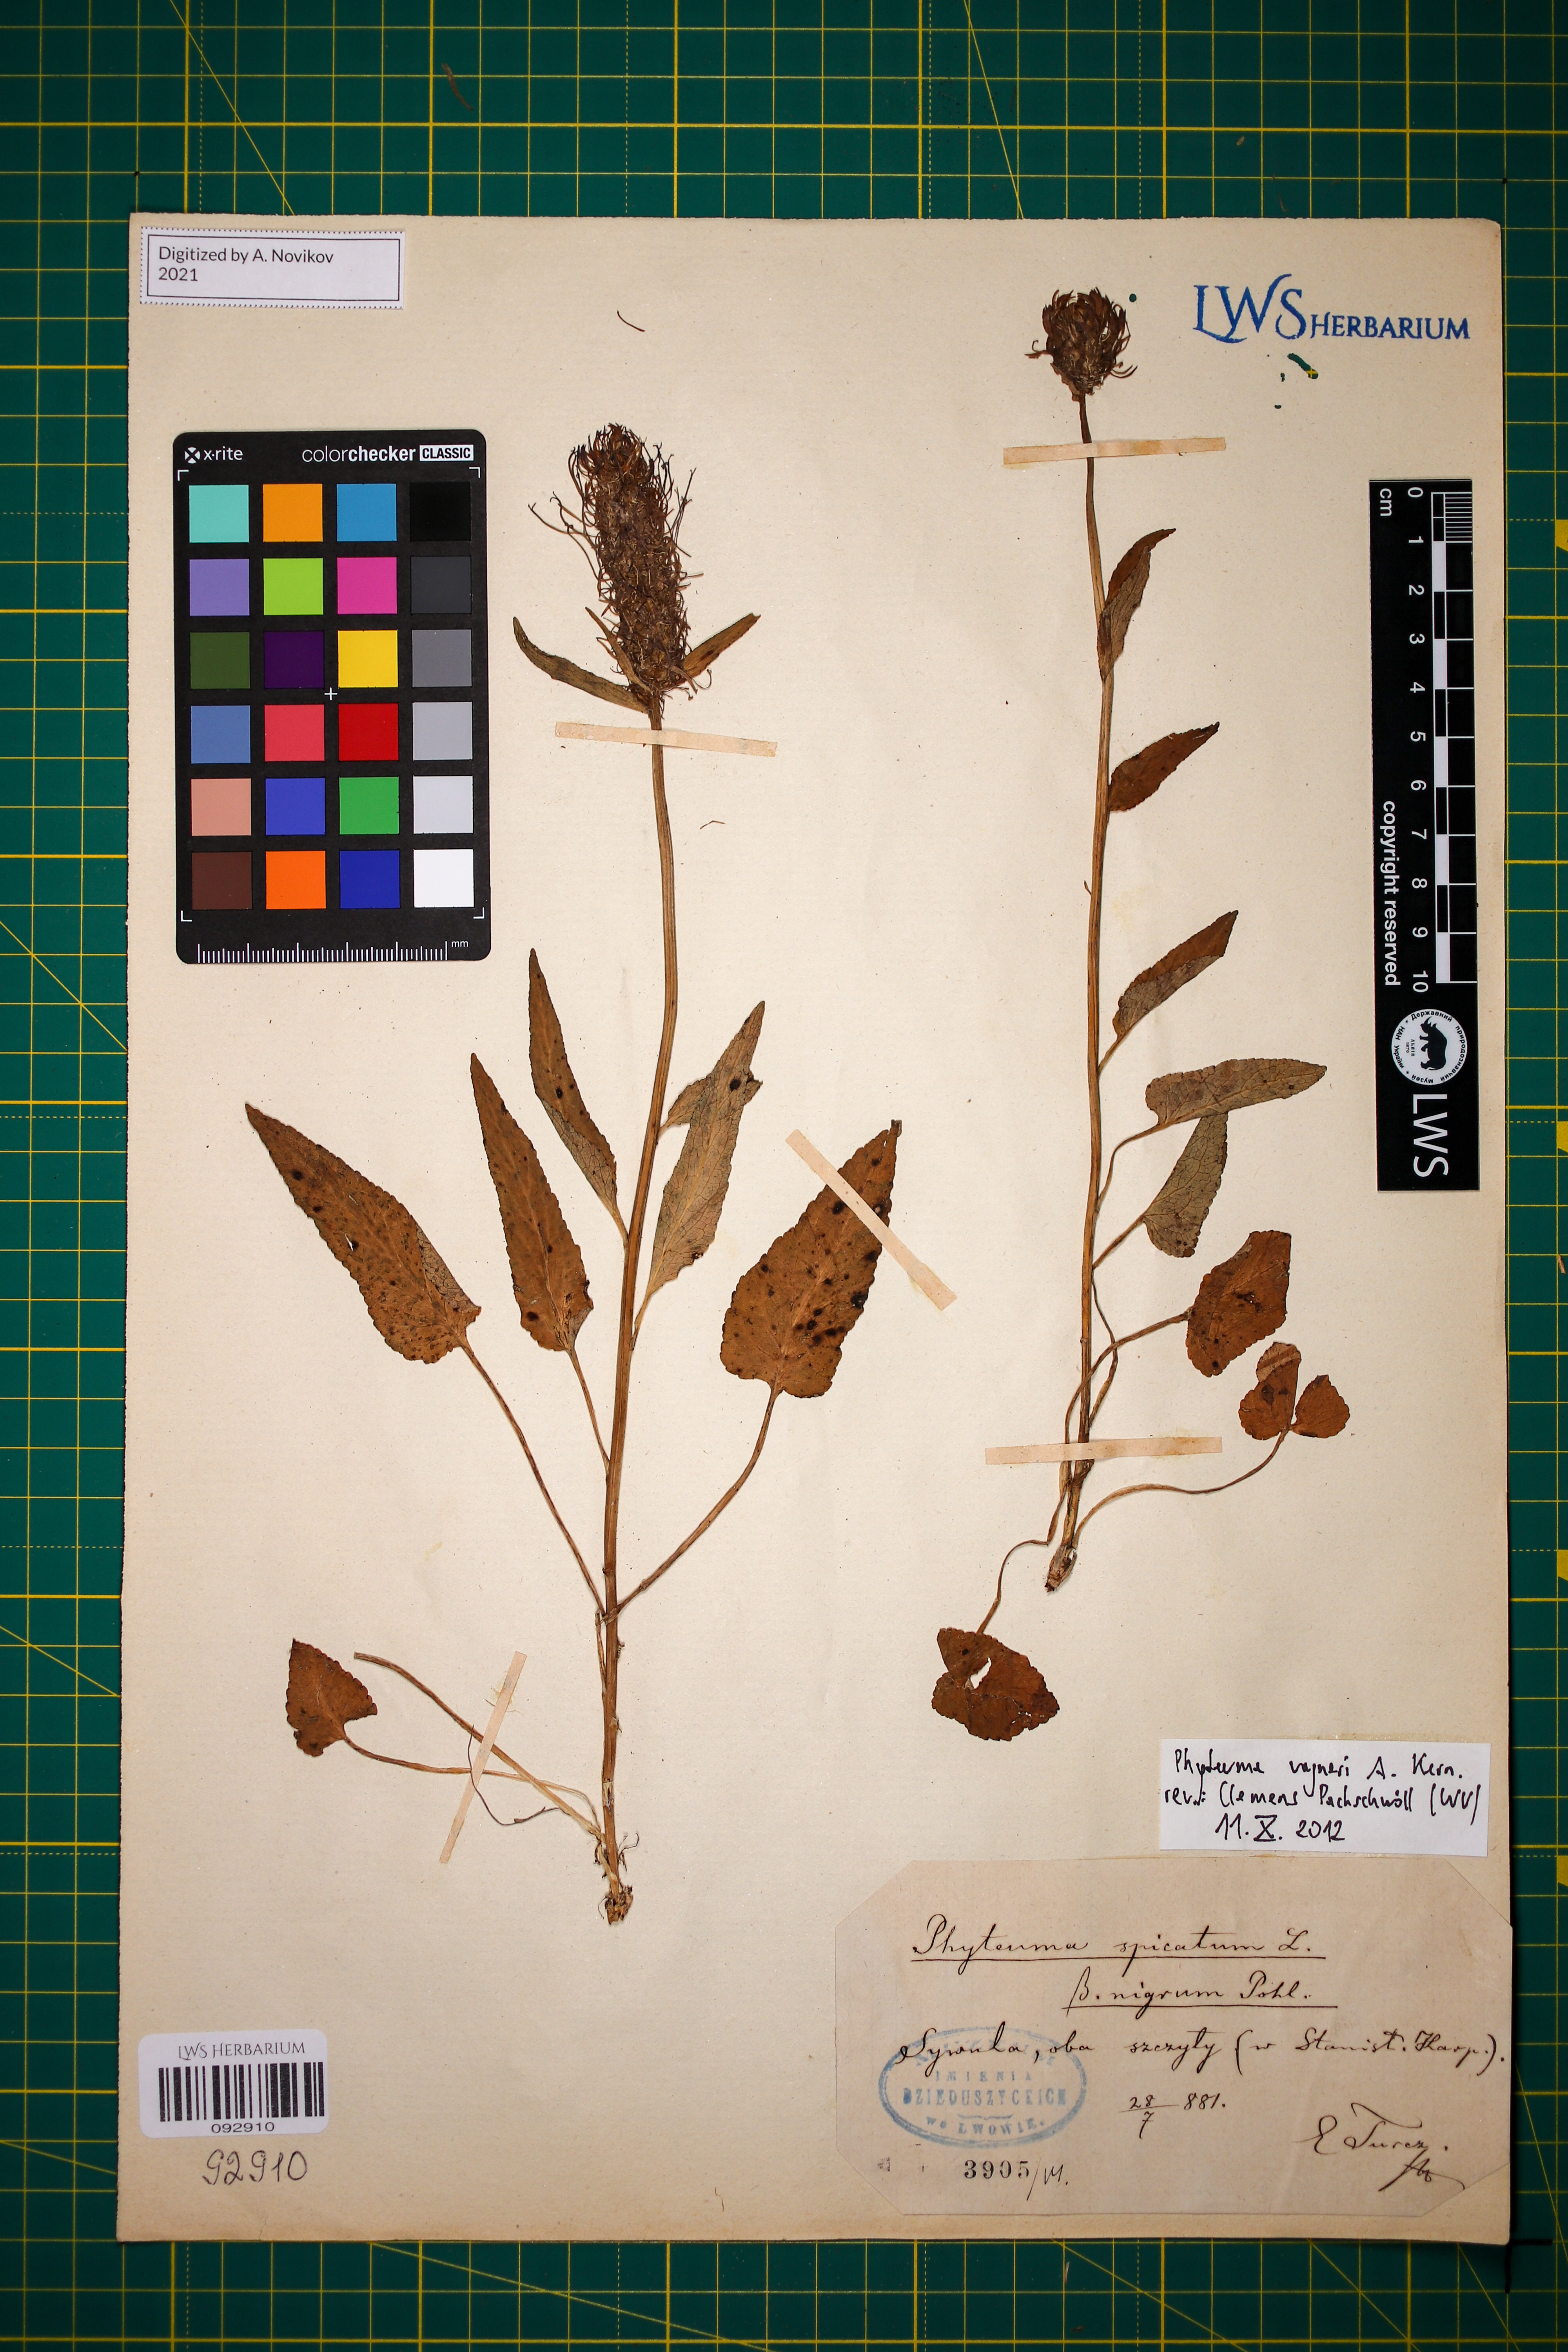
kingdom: Plantae
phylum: Tracheophyta
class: Magnoliopsida
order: Asterales
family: Campanulaceae
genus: Phyteuma
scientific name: Phyteuma vagneri
